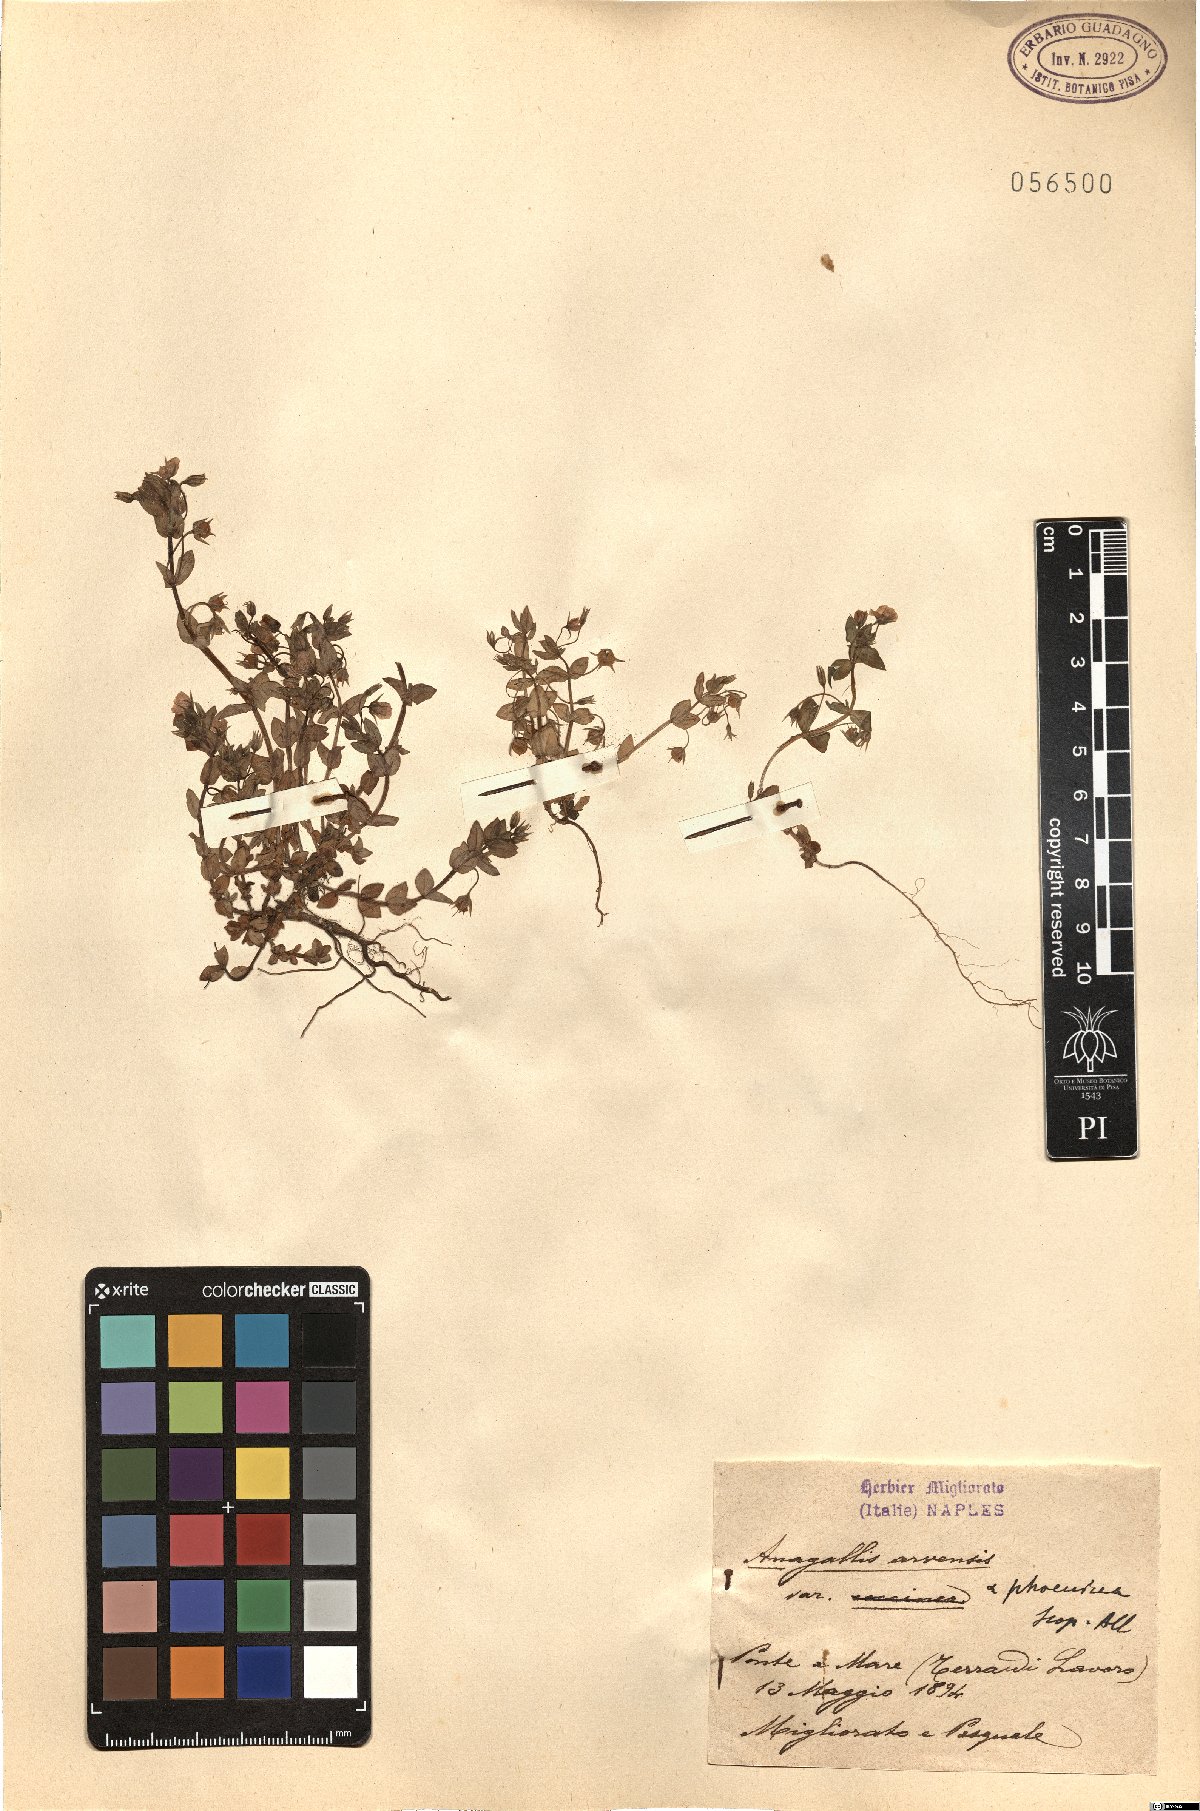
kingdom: Plantae
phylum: Tracheophyta
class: Magnoliopsida
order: Ericales
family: Primulaceae
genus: Lysimachia
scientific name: Lysimachia arvensis
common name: Scarlet pimpernel
